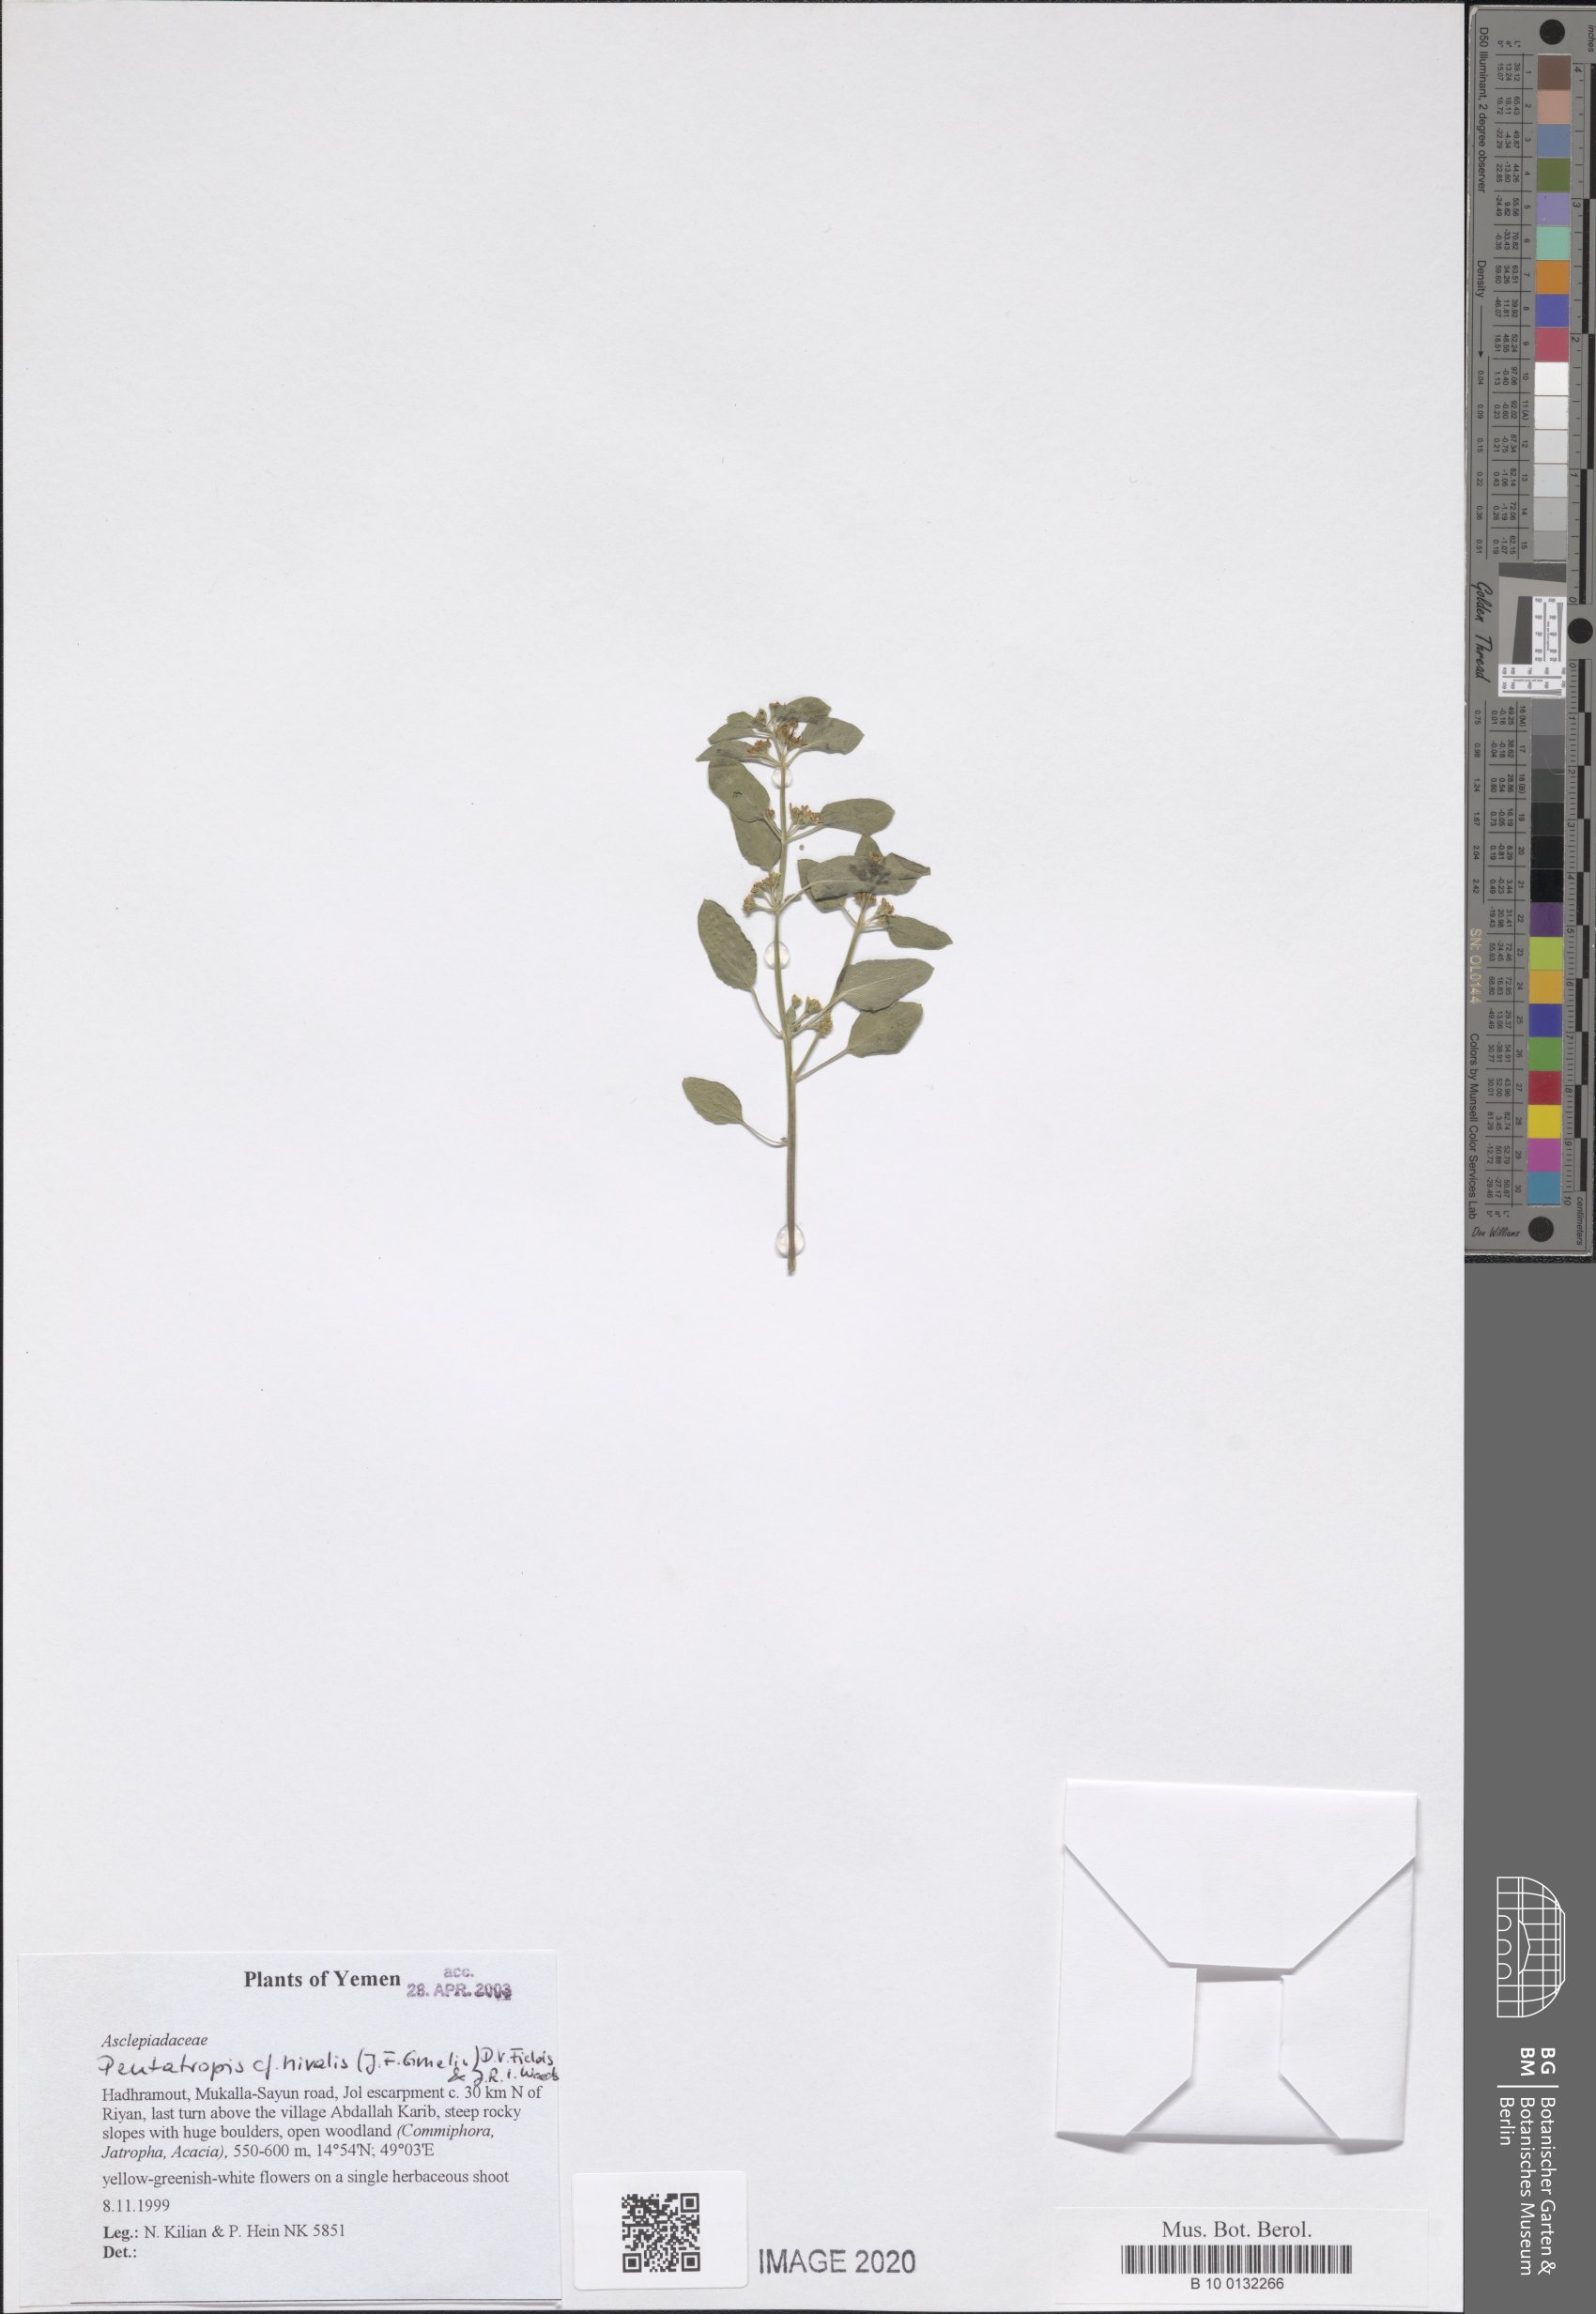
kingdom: Plantae
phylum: Tracheophyta
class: Magnoliopsida
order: Gentianales
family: Apocynaceae
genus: Pentatropis
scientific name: Pentatropis nivalis
